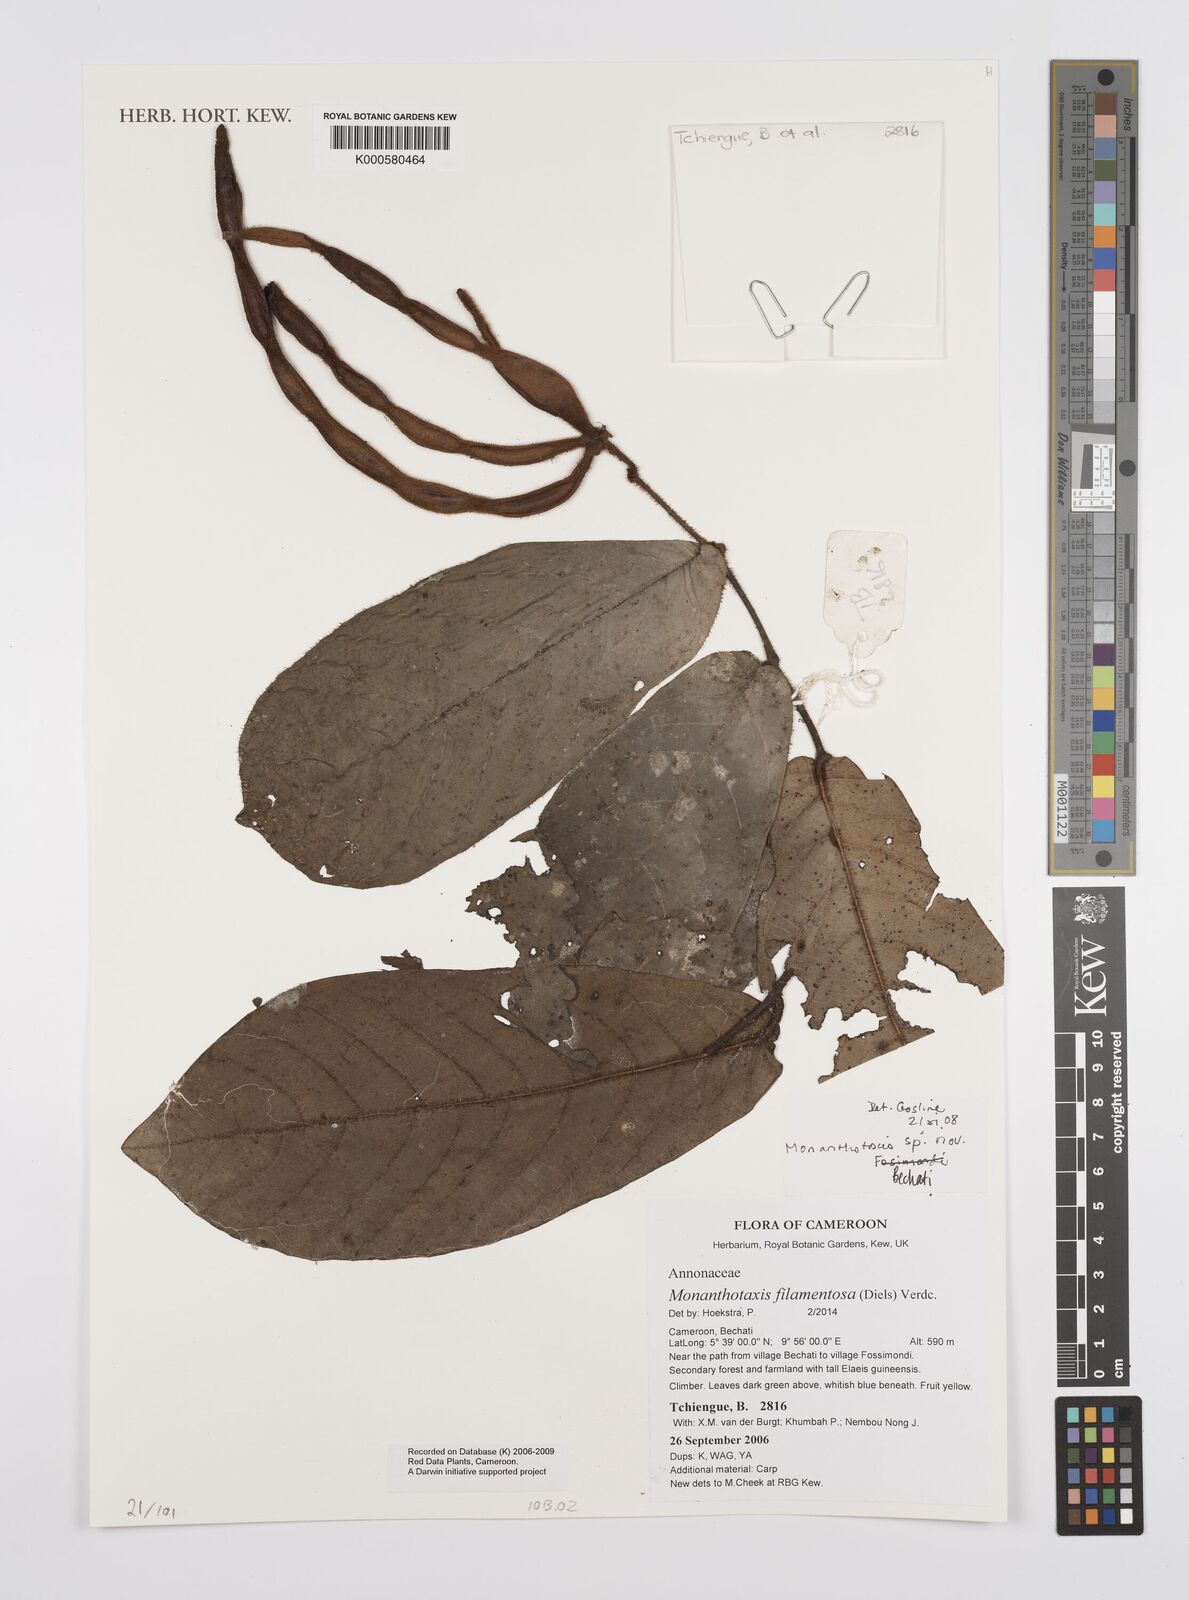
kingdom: Plantae
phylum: Tracheophyta
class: Magnoliopsida
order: Magnoliales
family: Annonaceae
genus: Monanthotaxis
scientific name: Monanthotaxis filamentosa
